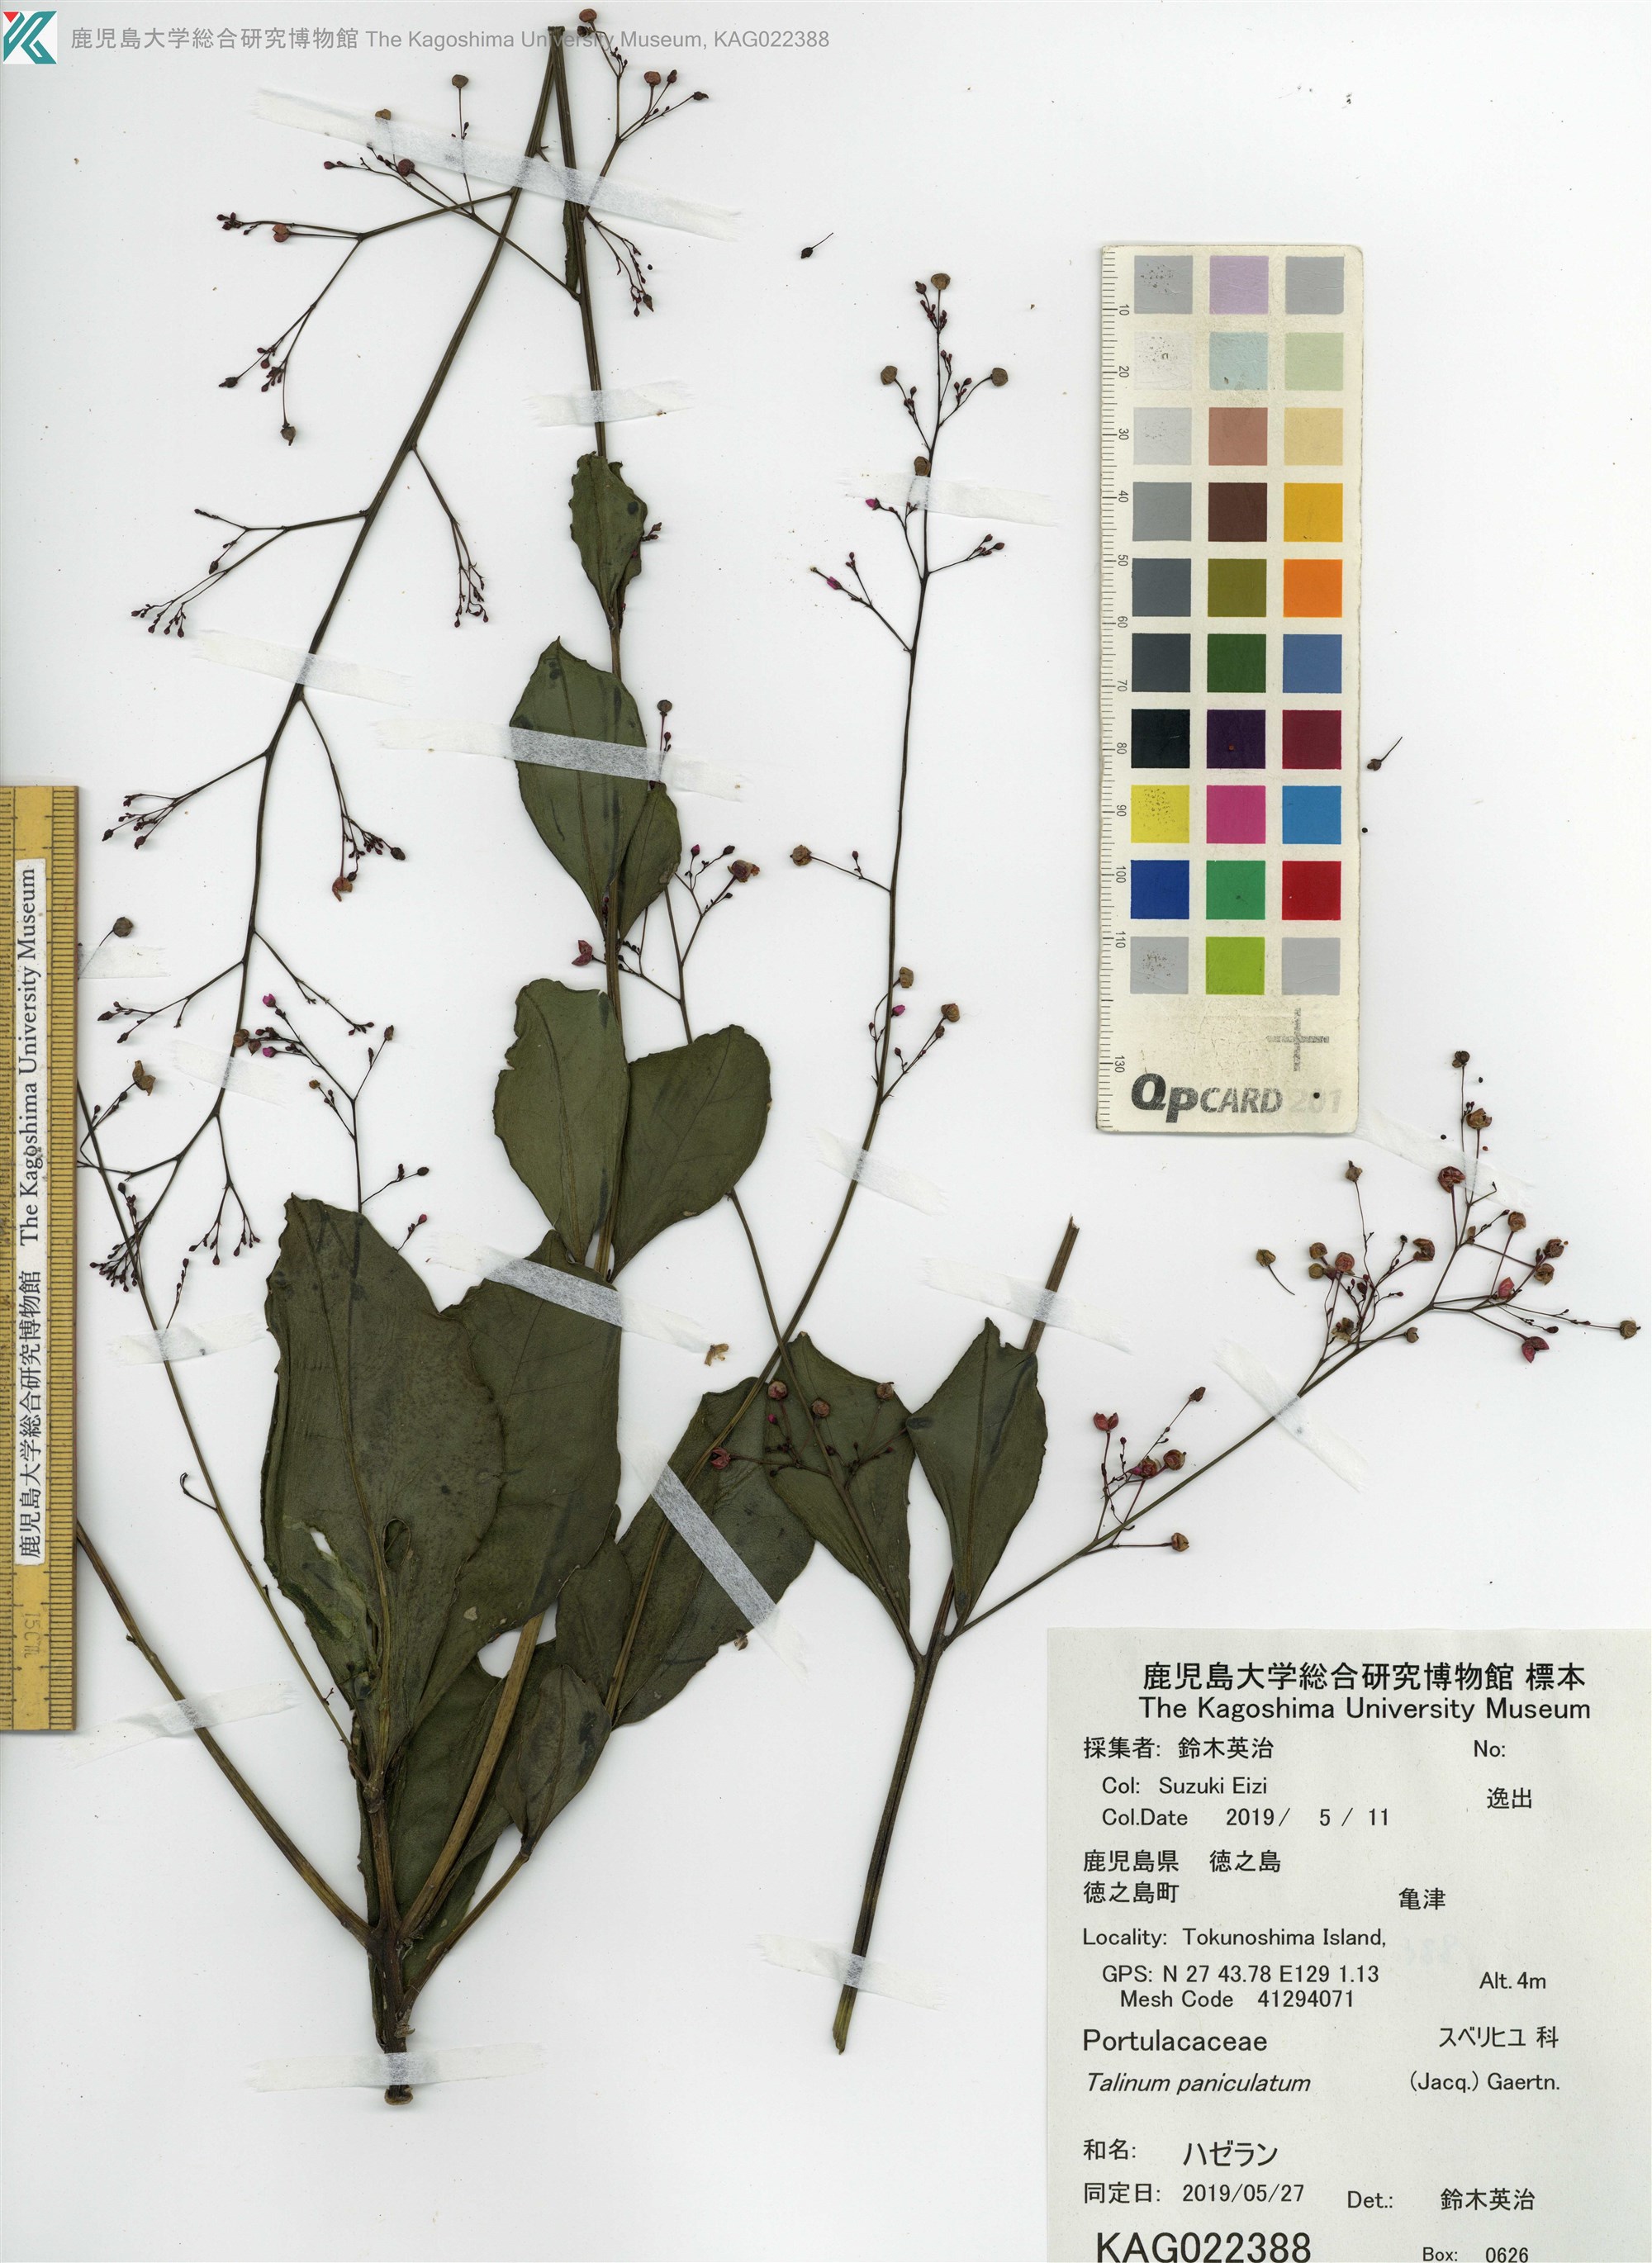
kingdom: Plantae
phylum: Tracheophyta
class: Magnoliopsida
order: Caryophyllales
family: Talinaceae
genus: Talinum
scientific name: Talinum paniculatum
